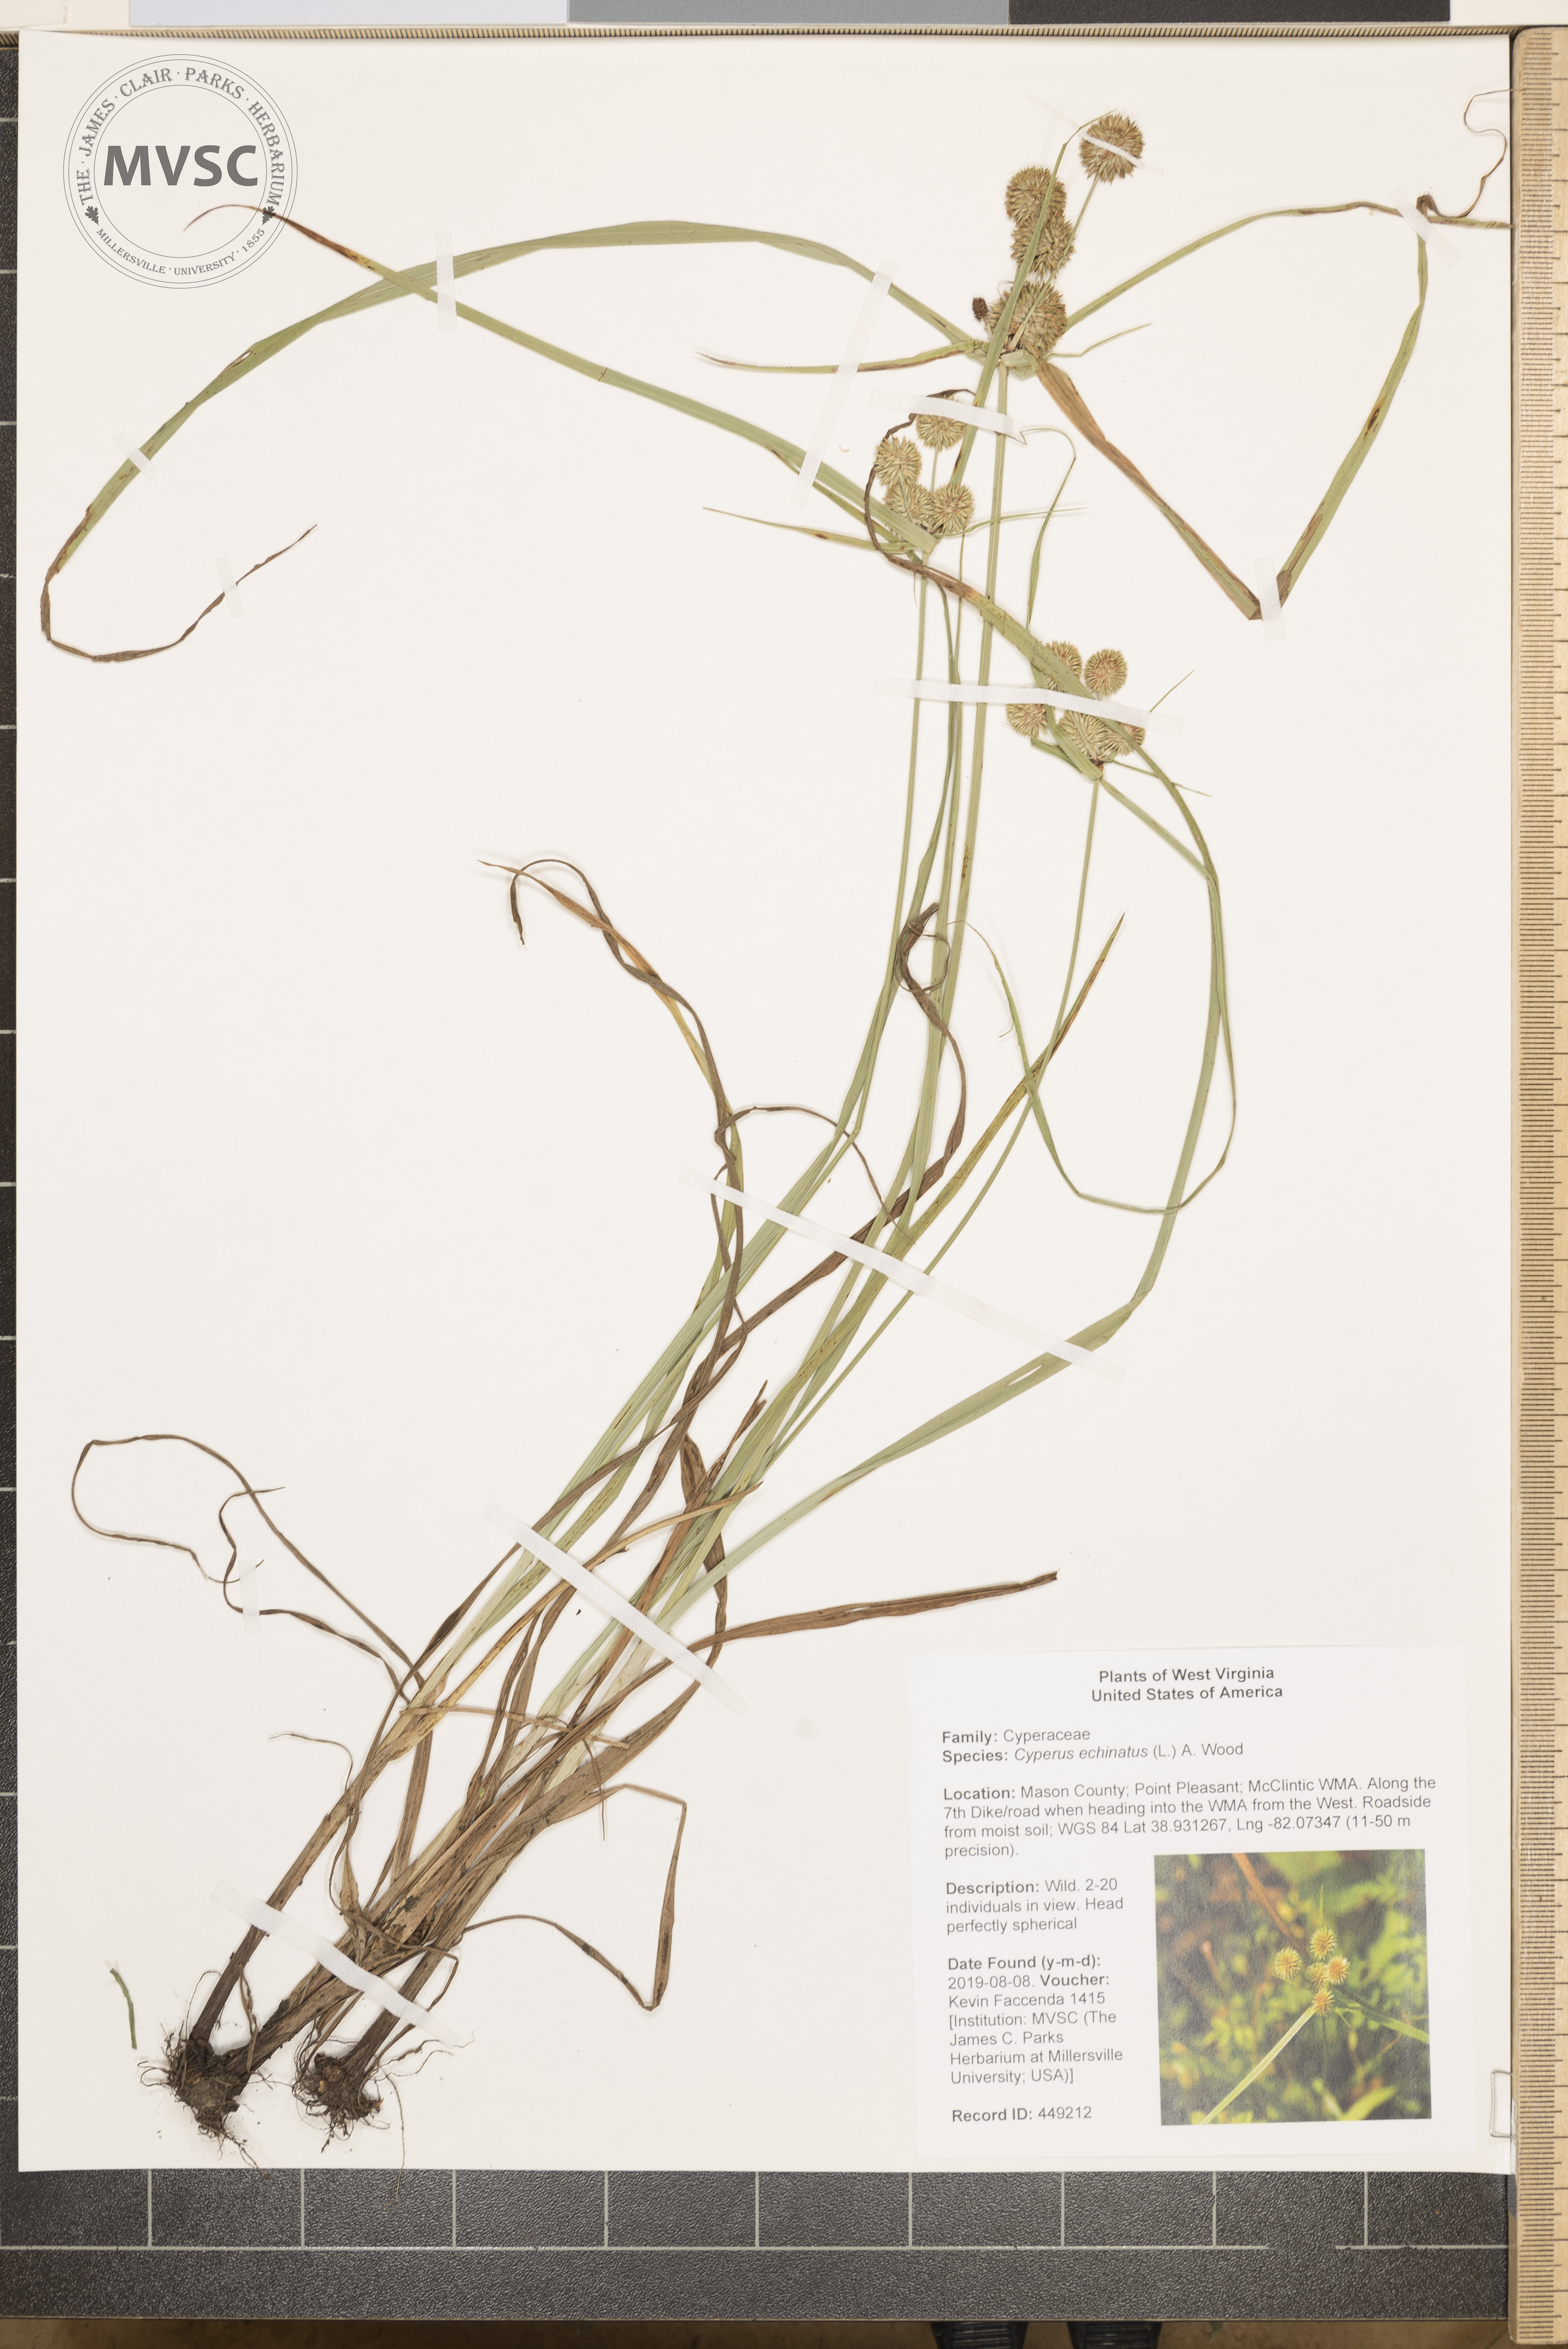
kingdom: Plantae
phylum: Tracheophyta
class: Liliopsida
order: Poales
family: Cyperaceae
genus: Cyperus
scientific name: Cyperus echinatus
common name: Teasel sedge
